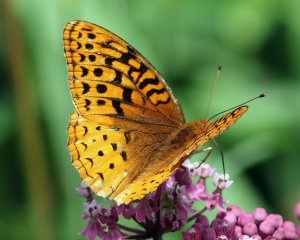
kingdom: Animalia
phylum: Arthropoda
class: Insecta
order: Lepidoptera
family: Nymphalidae
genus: Speyeria
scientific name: Speyeria cybele
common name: Great Spangled Fritillary
